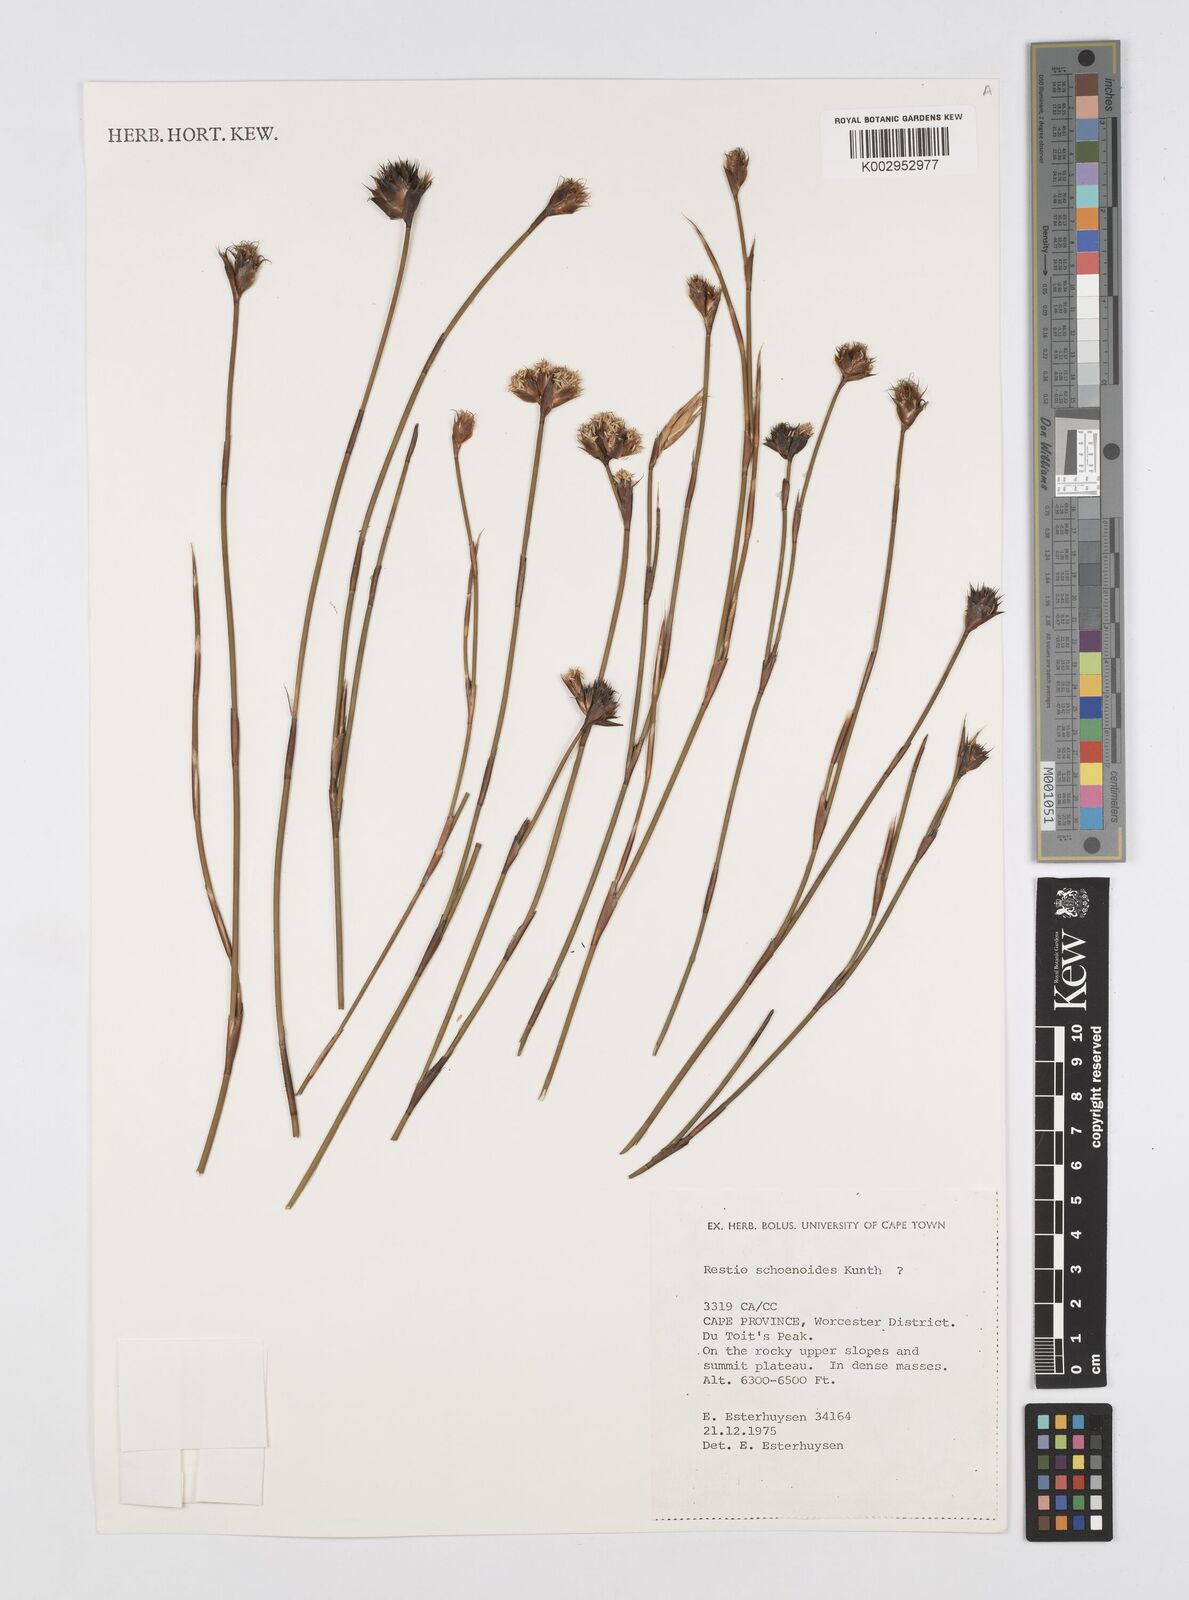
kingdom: Plantae
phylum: Tracheophyta
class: Liliopsida
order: Poales
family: Restionaceae
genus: Restio
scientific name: Restio schoenoides
